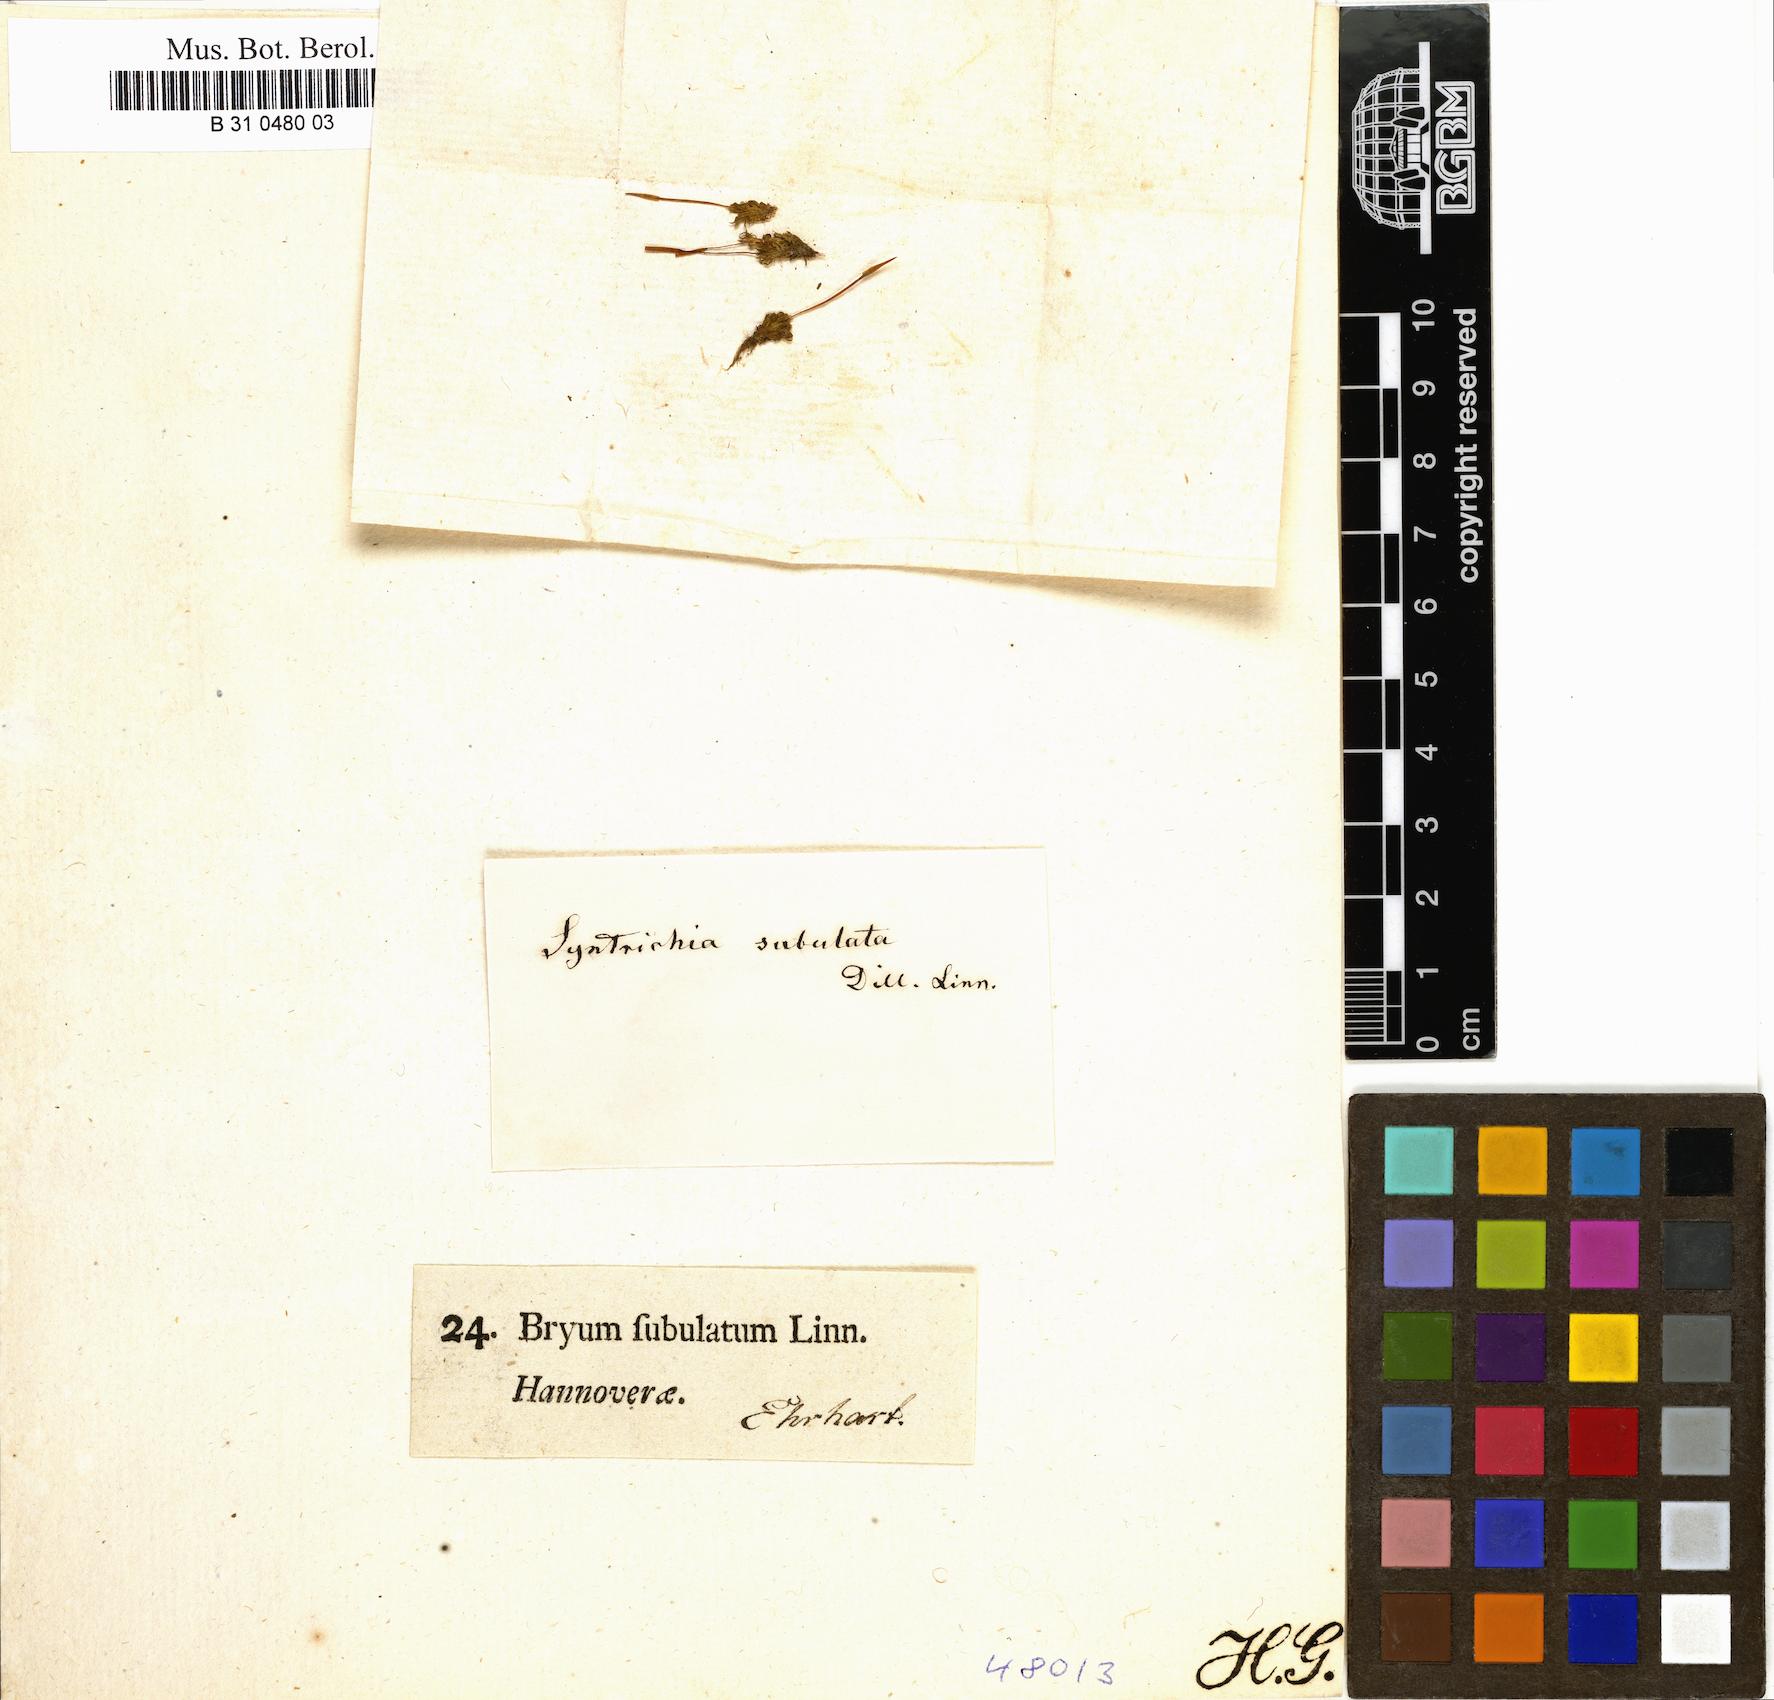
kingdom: Plantae
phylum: Bryophyta
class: Bryopsida
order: Pottiales
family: Pottiaceae
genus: Tortula
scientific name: Tortula subulata
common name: Upright screw-moss
